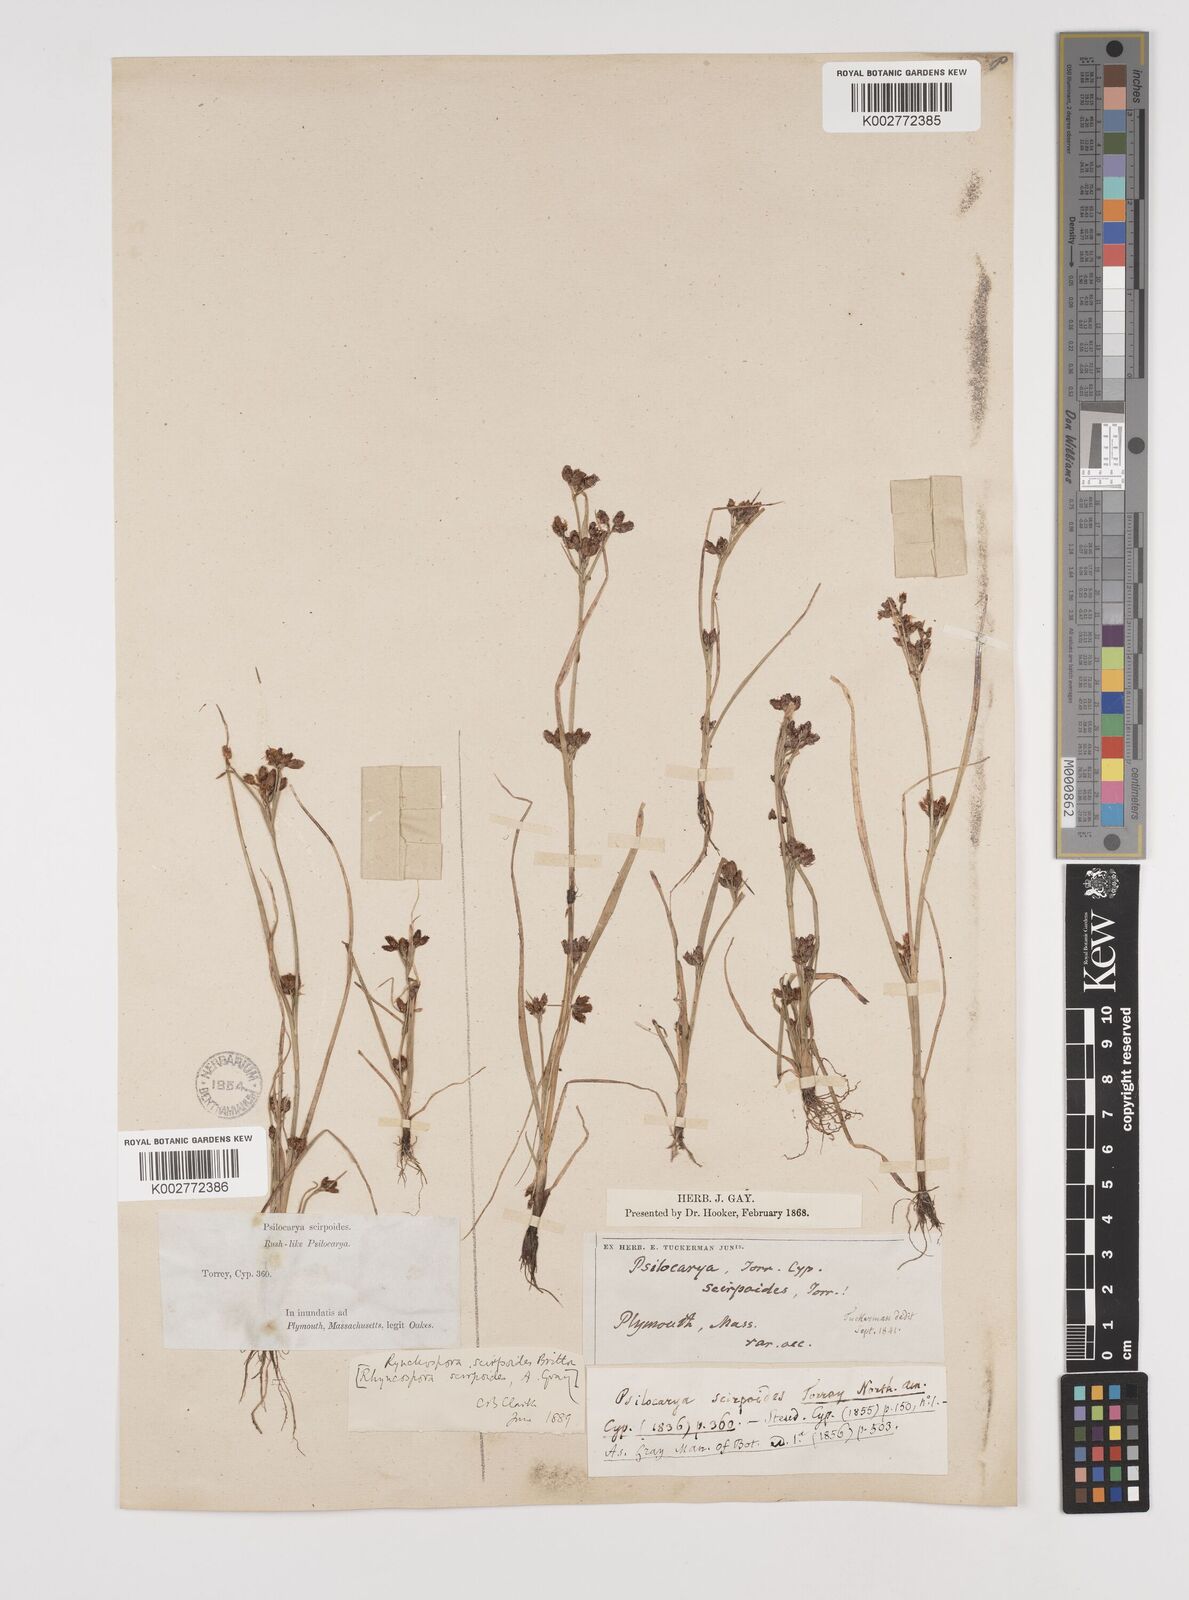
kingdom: Plantae
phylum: Tracheophyta
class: Liliopsida
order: Poales
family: Cyperaceae
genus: Rhynchospora
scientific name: Rhynchospora scirpoides
